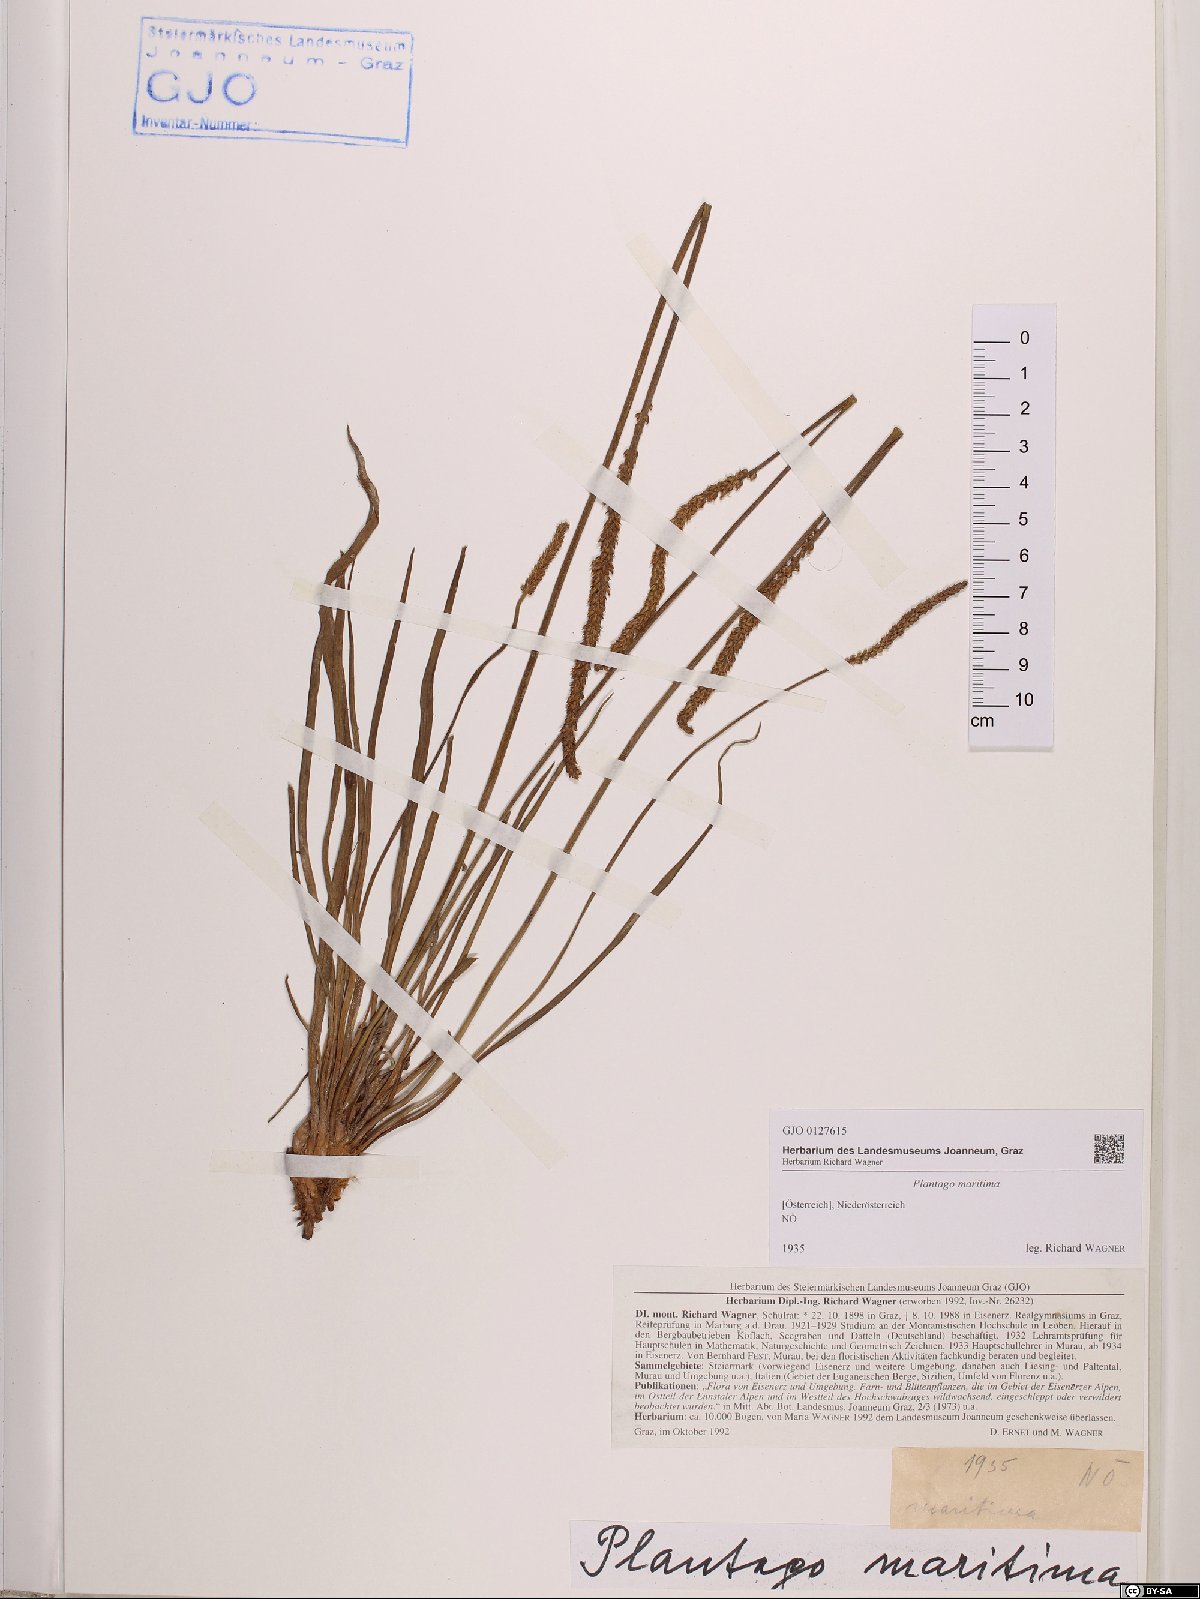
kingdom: Plantae
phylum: Tracheophyta
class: Magnoliopsida
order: Lamiales
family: Plantaginaceae
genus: Plantago
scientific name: Plantago maritima
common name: Sea plantain
